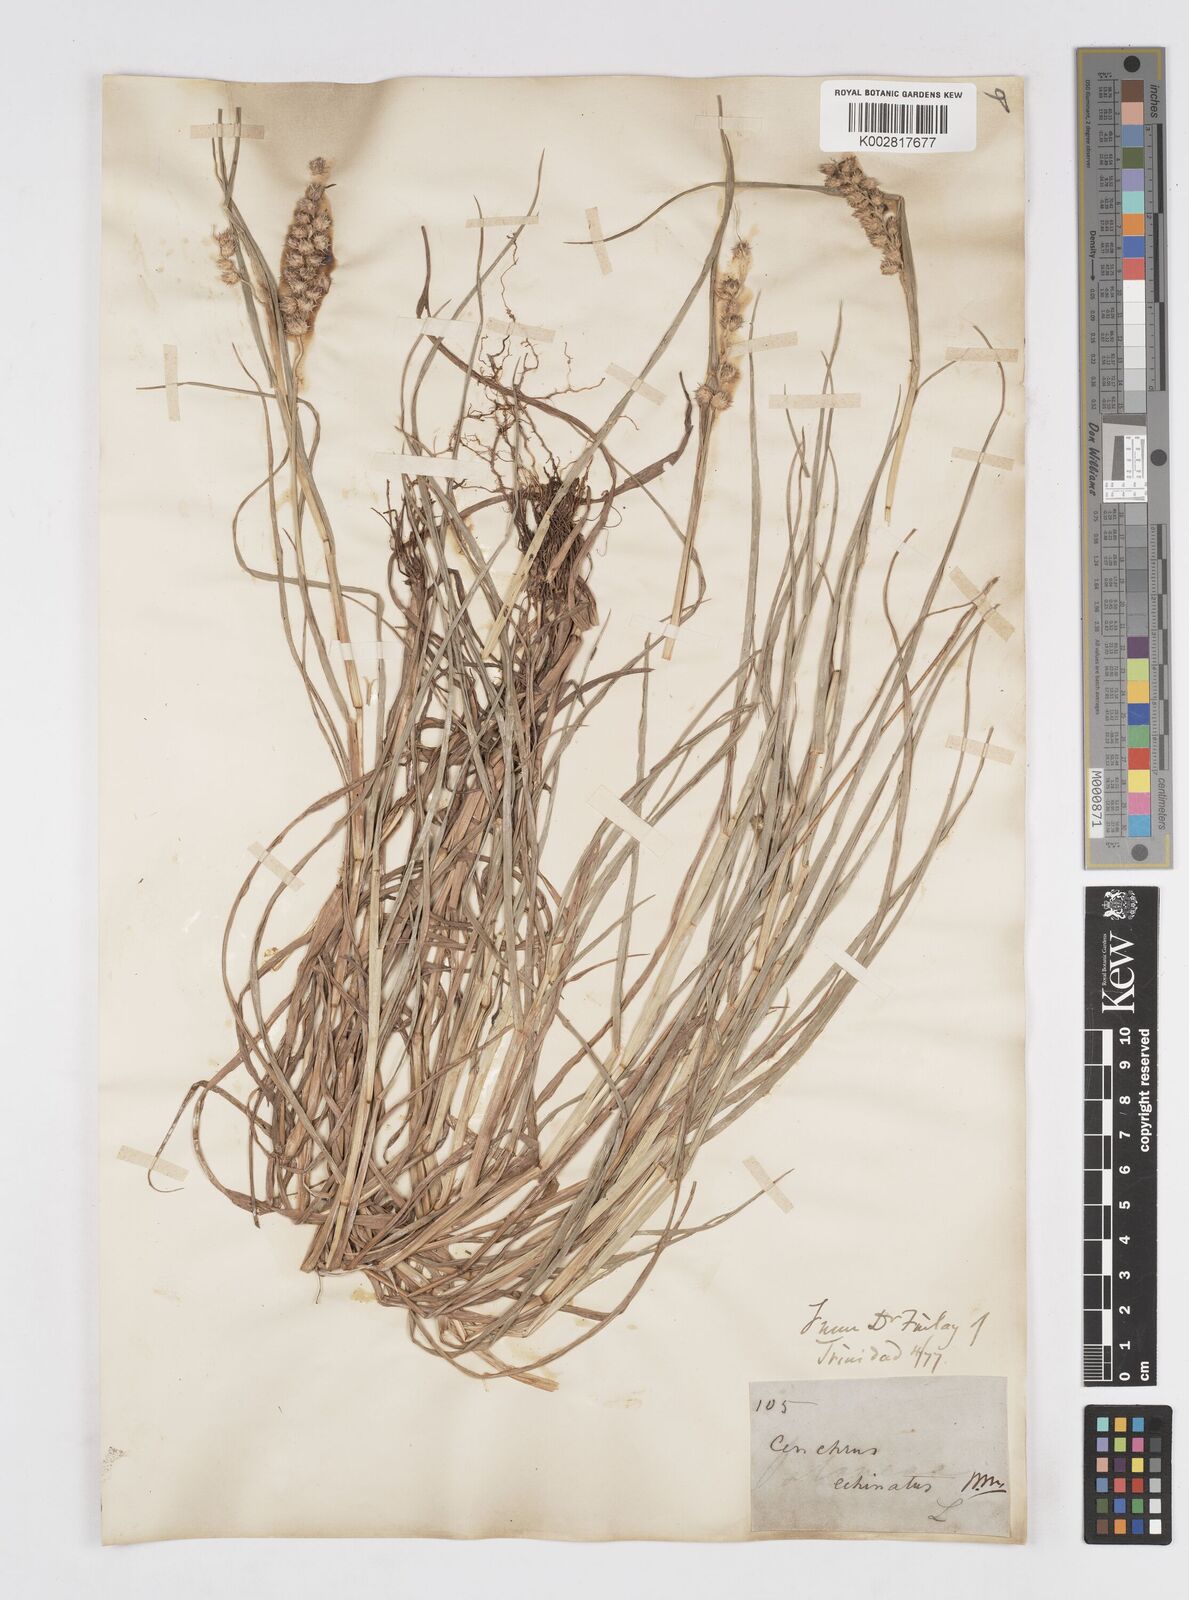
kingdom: Plantae
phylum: Tracheophyta
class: Liliopsida
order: Poales
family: Poaceae
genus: Cenchrus
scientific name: Cenchrus
